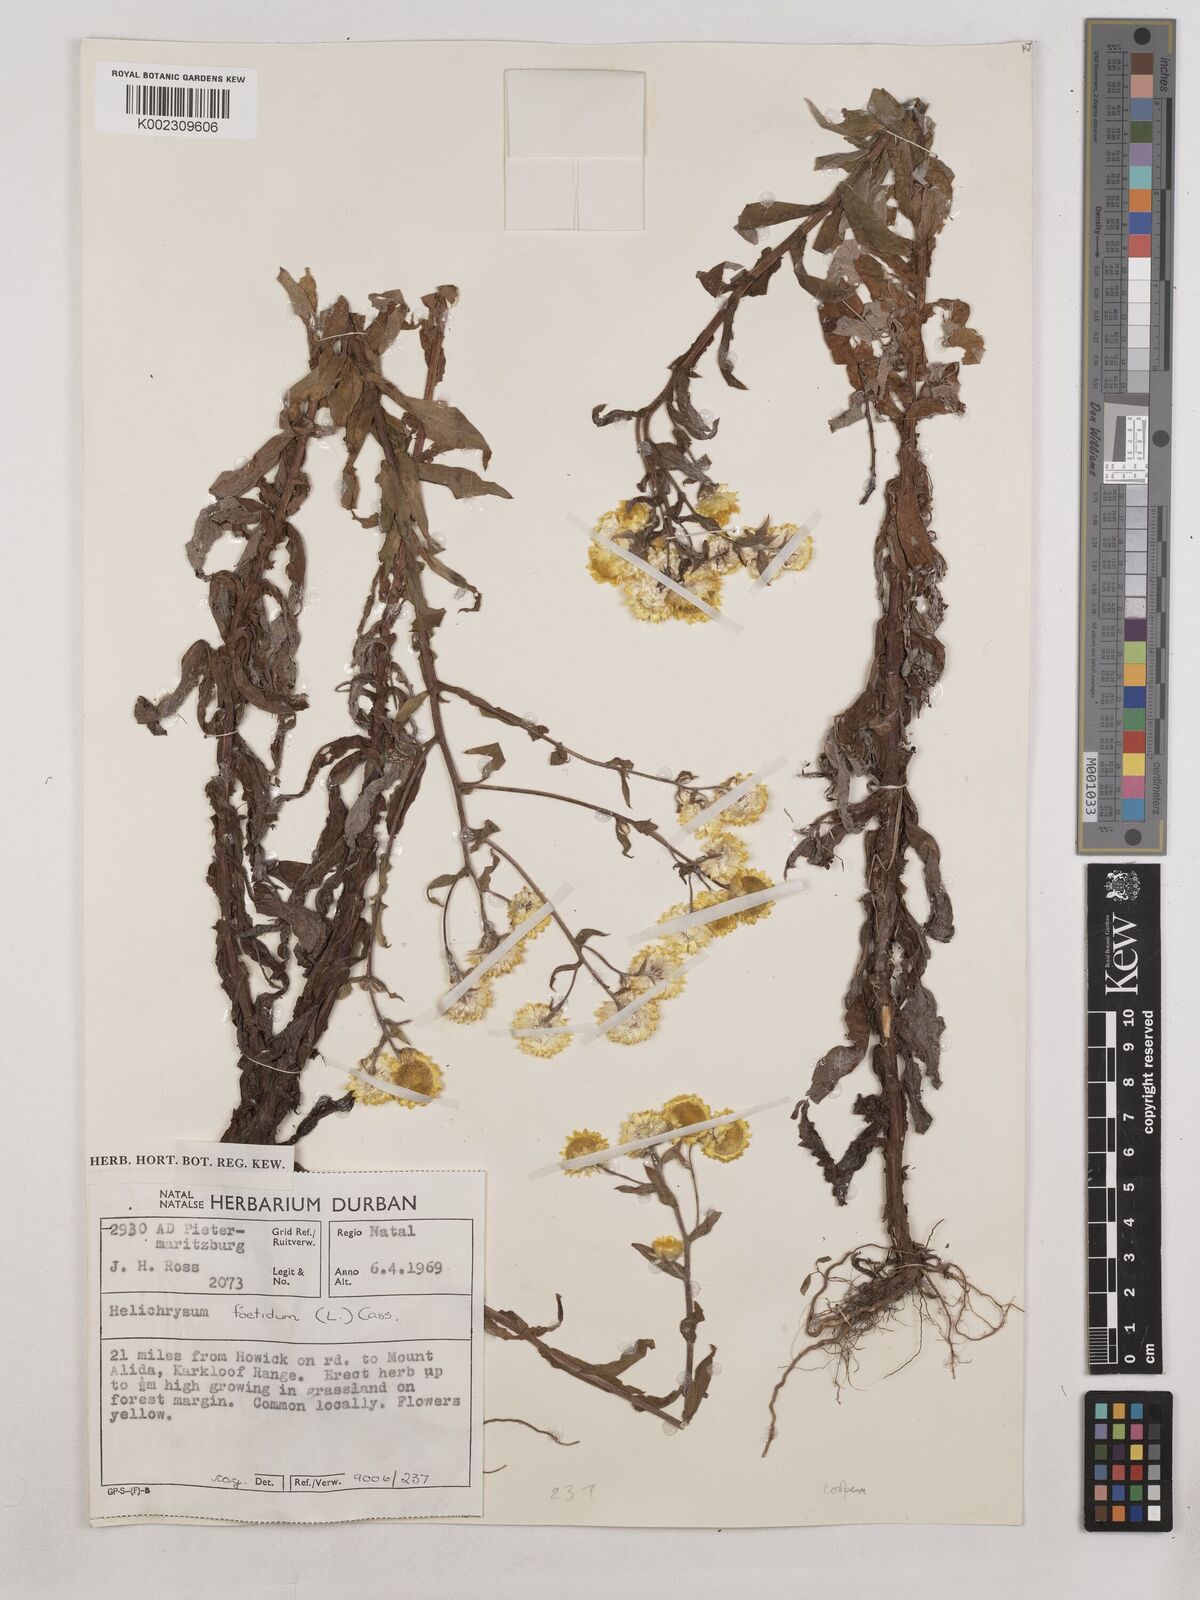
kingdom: Plantae
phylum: Tracheophyta
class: Magnoliopsida
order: Asterales
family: Asteraceae
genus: Helichrysum
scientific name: Helichrysum cooperi
